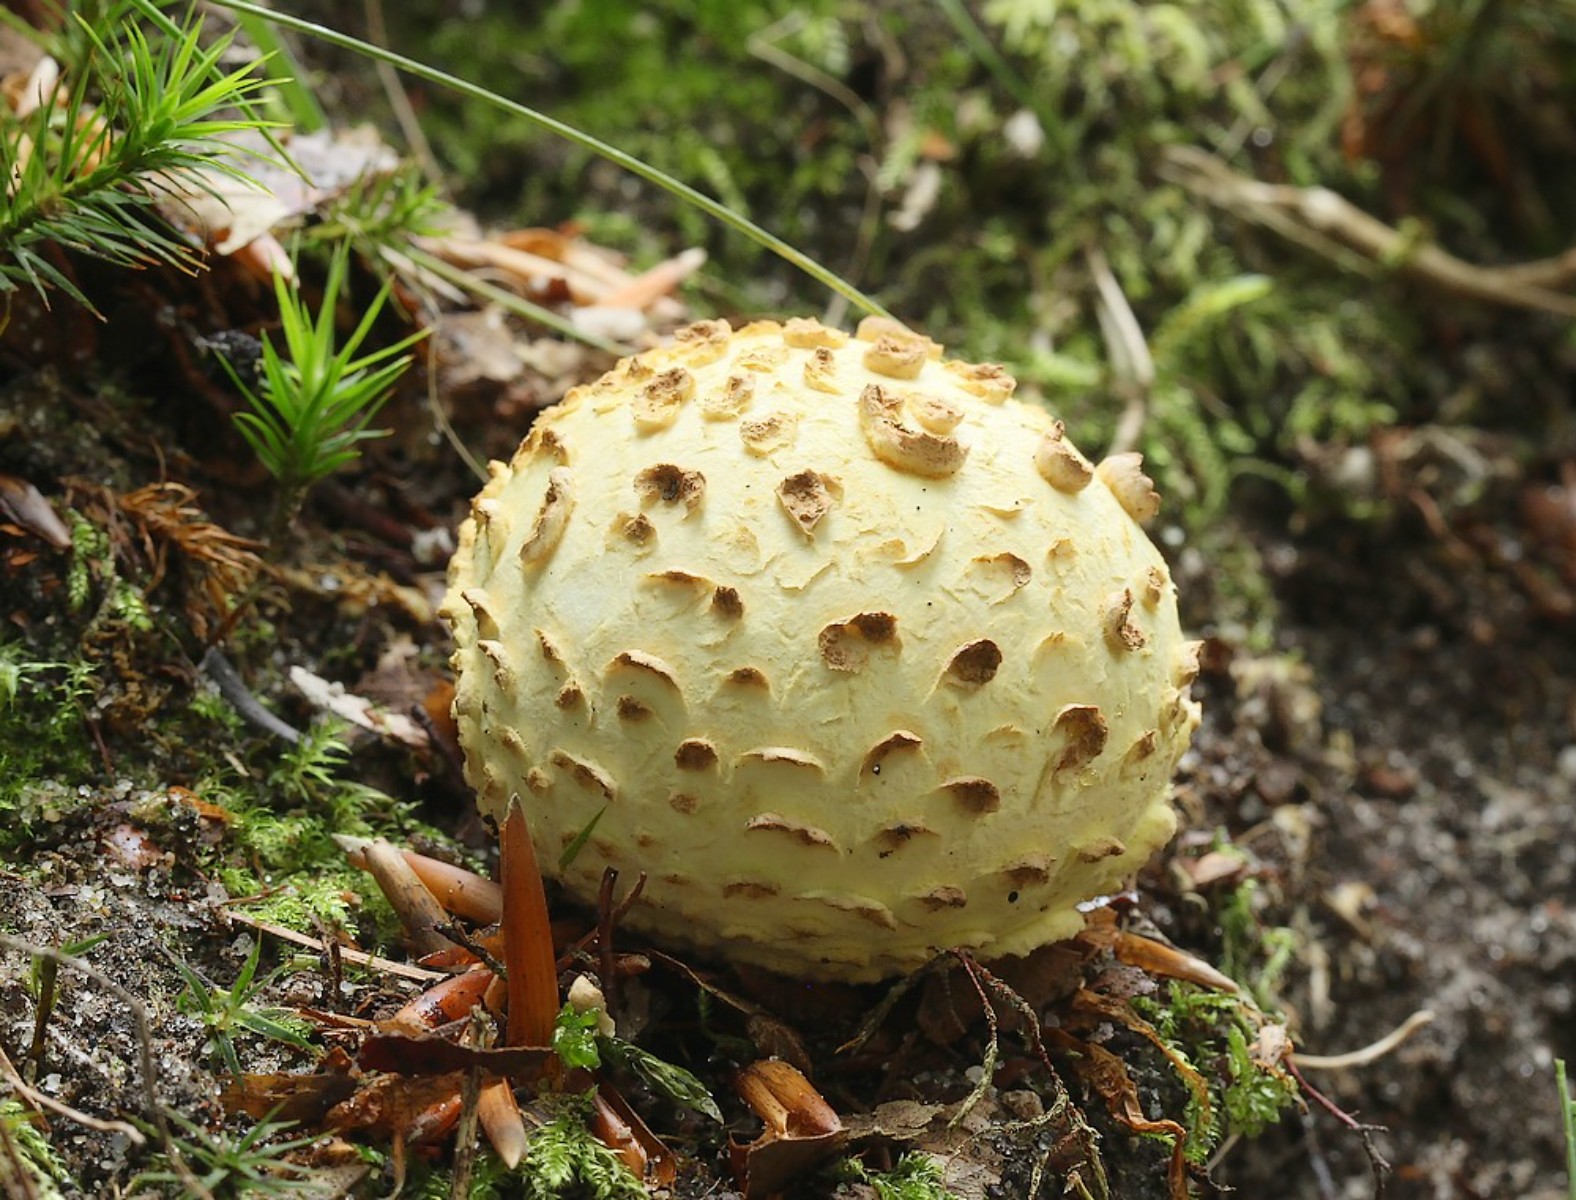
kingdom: Fungi
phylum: Basidiomycota
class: Agaricomycetes
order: Boletales
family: Sclerodermataceae
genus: Scleroderma
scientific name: Scleroderma citrinum
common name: almindelig bruskbold
